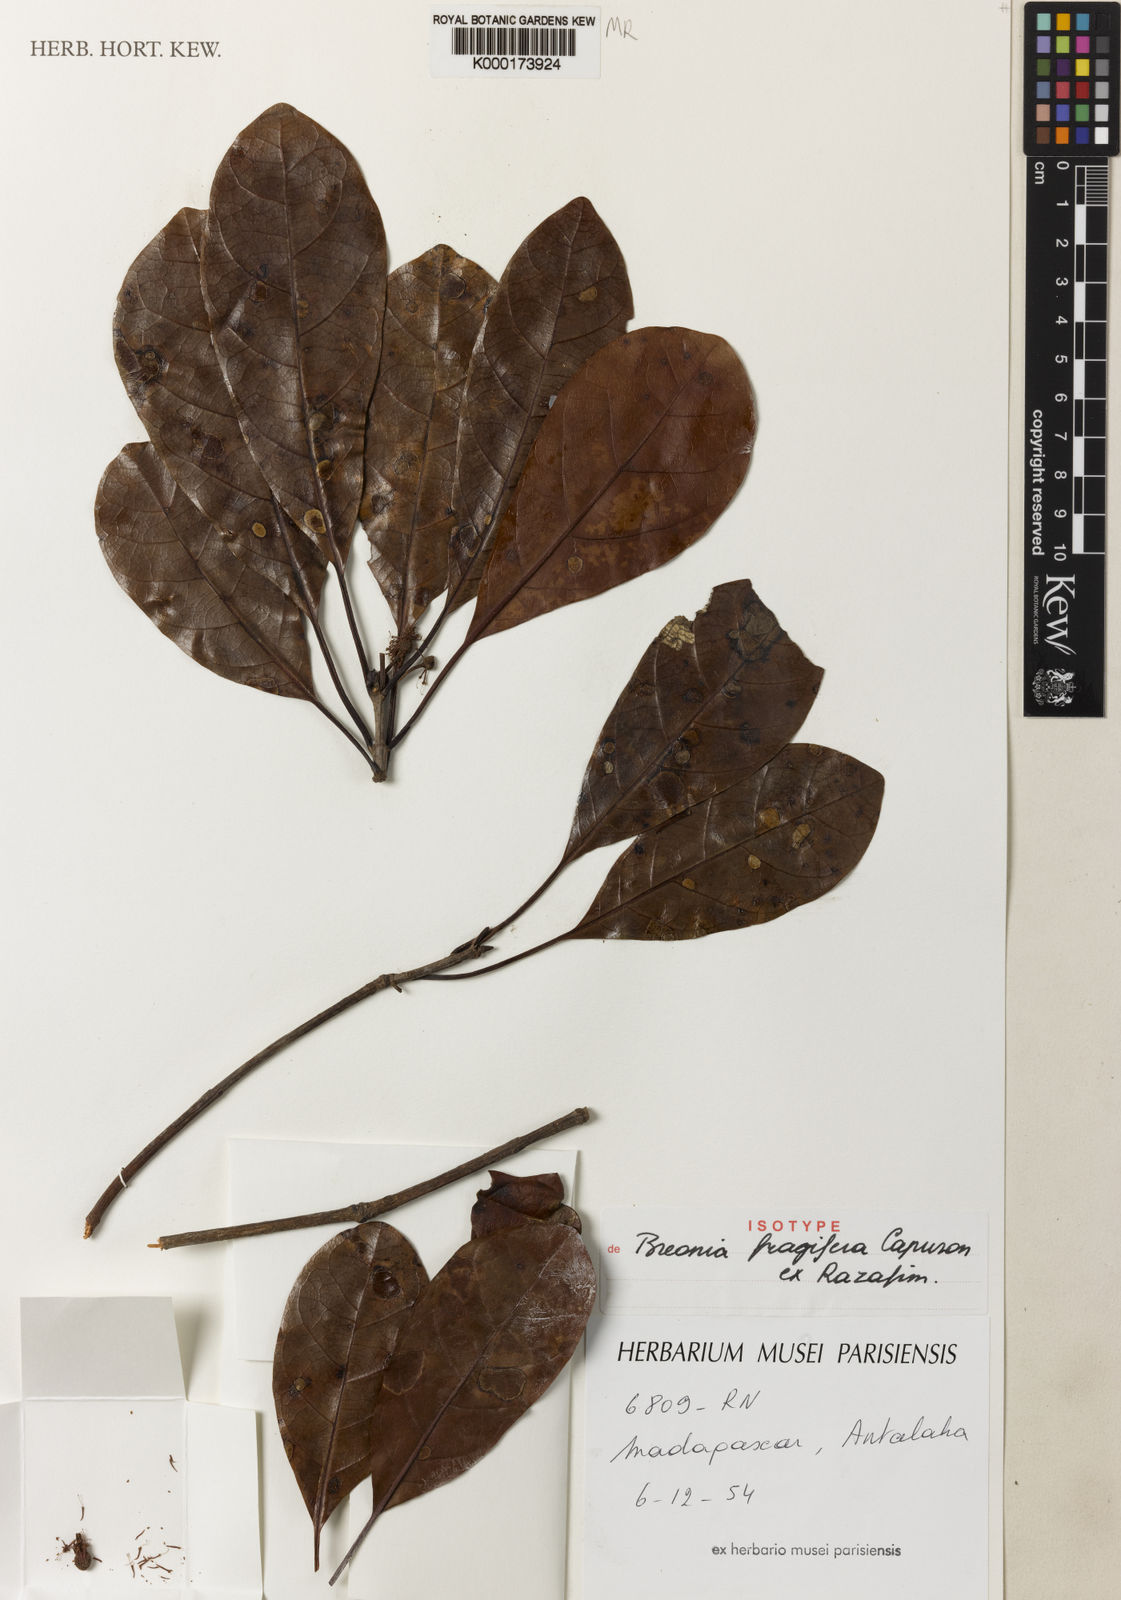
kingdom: Plantae
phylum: Tracheophyta
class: Magnoliopsida
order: Gentianales
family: Rubiaceae
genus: Breonia
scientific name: Breonia fragifera
